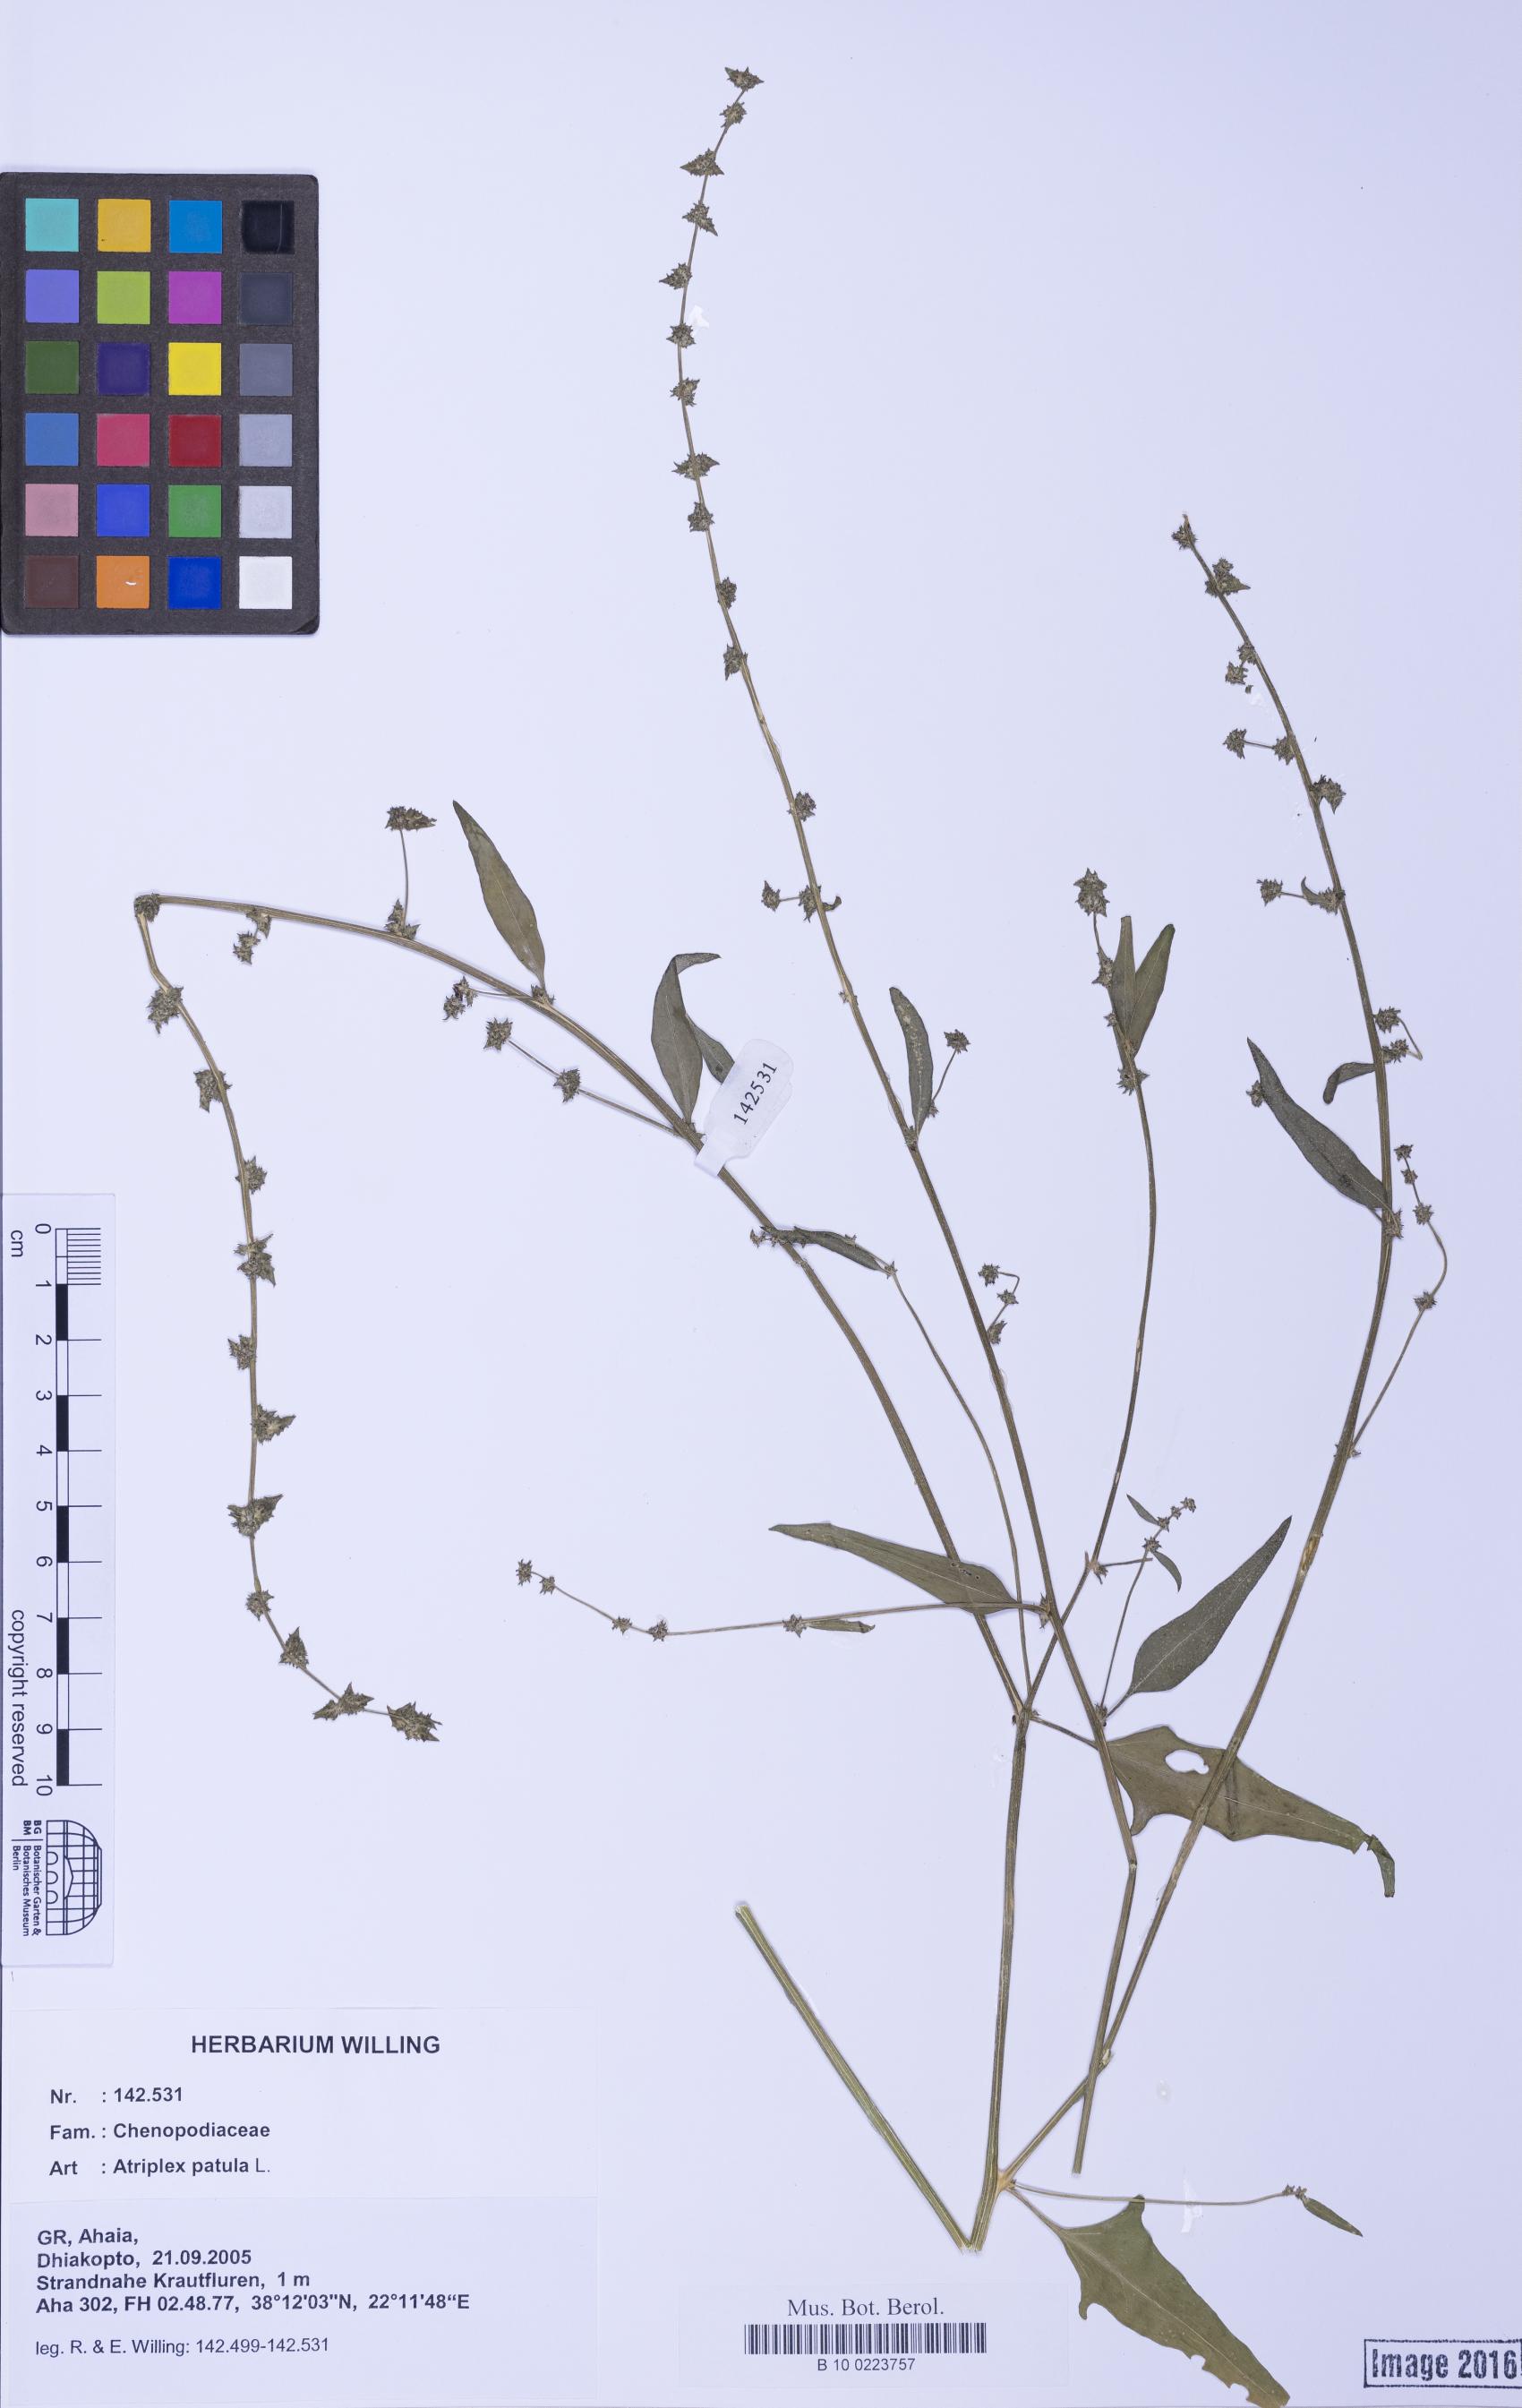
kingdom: Plantae
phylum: Tracheophyta
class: Magnoliopsida
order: Caryophyllales
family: Amaranthaceae
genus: Atriplex
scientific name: Atriplex patula
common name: Common orache
